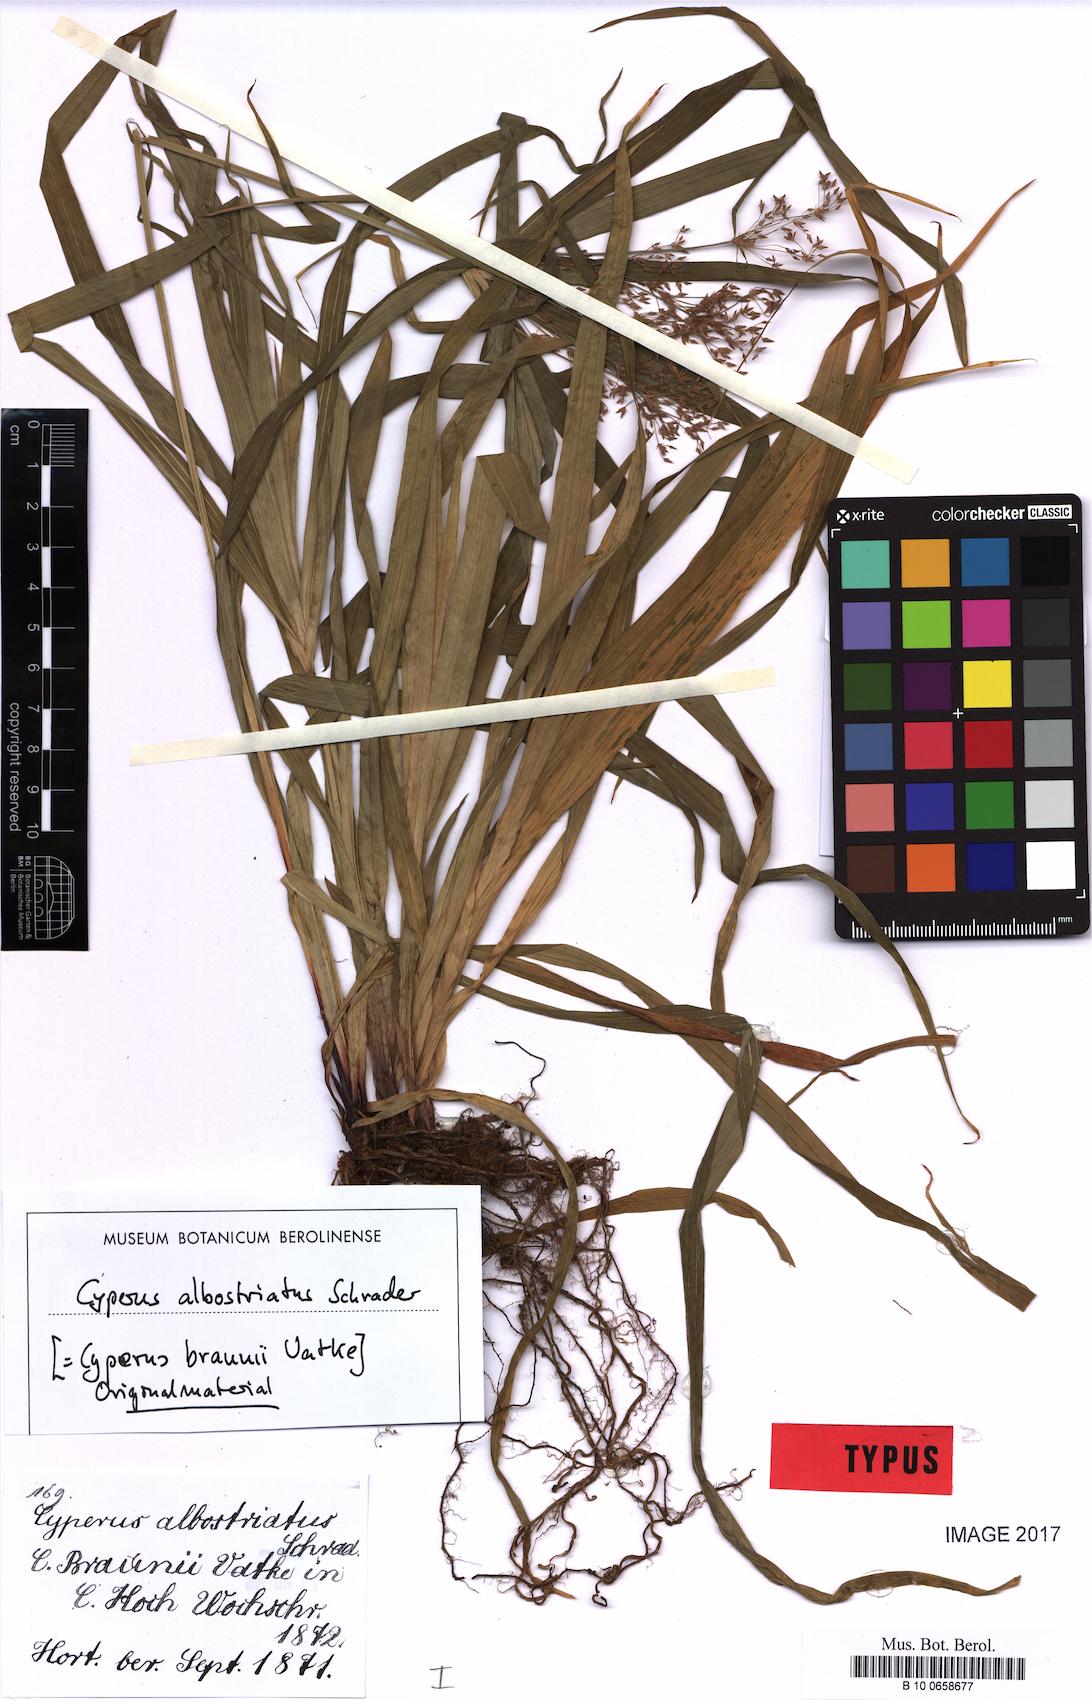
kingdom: Plantae
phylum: Tracheophyta
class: Liliopsida
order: Poales
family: Cyperaceae
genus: Cyperus
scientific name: Cyperus albostriatus
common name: Dwarf umbrella-grass
